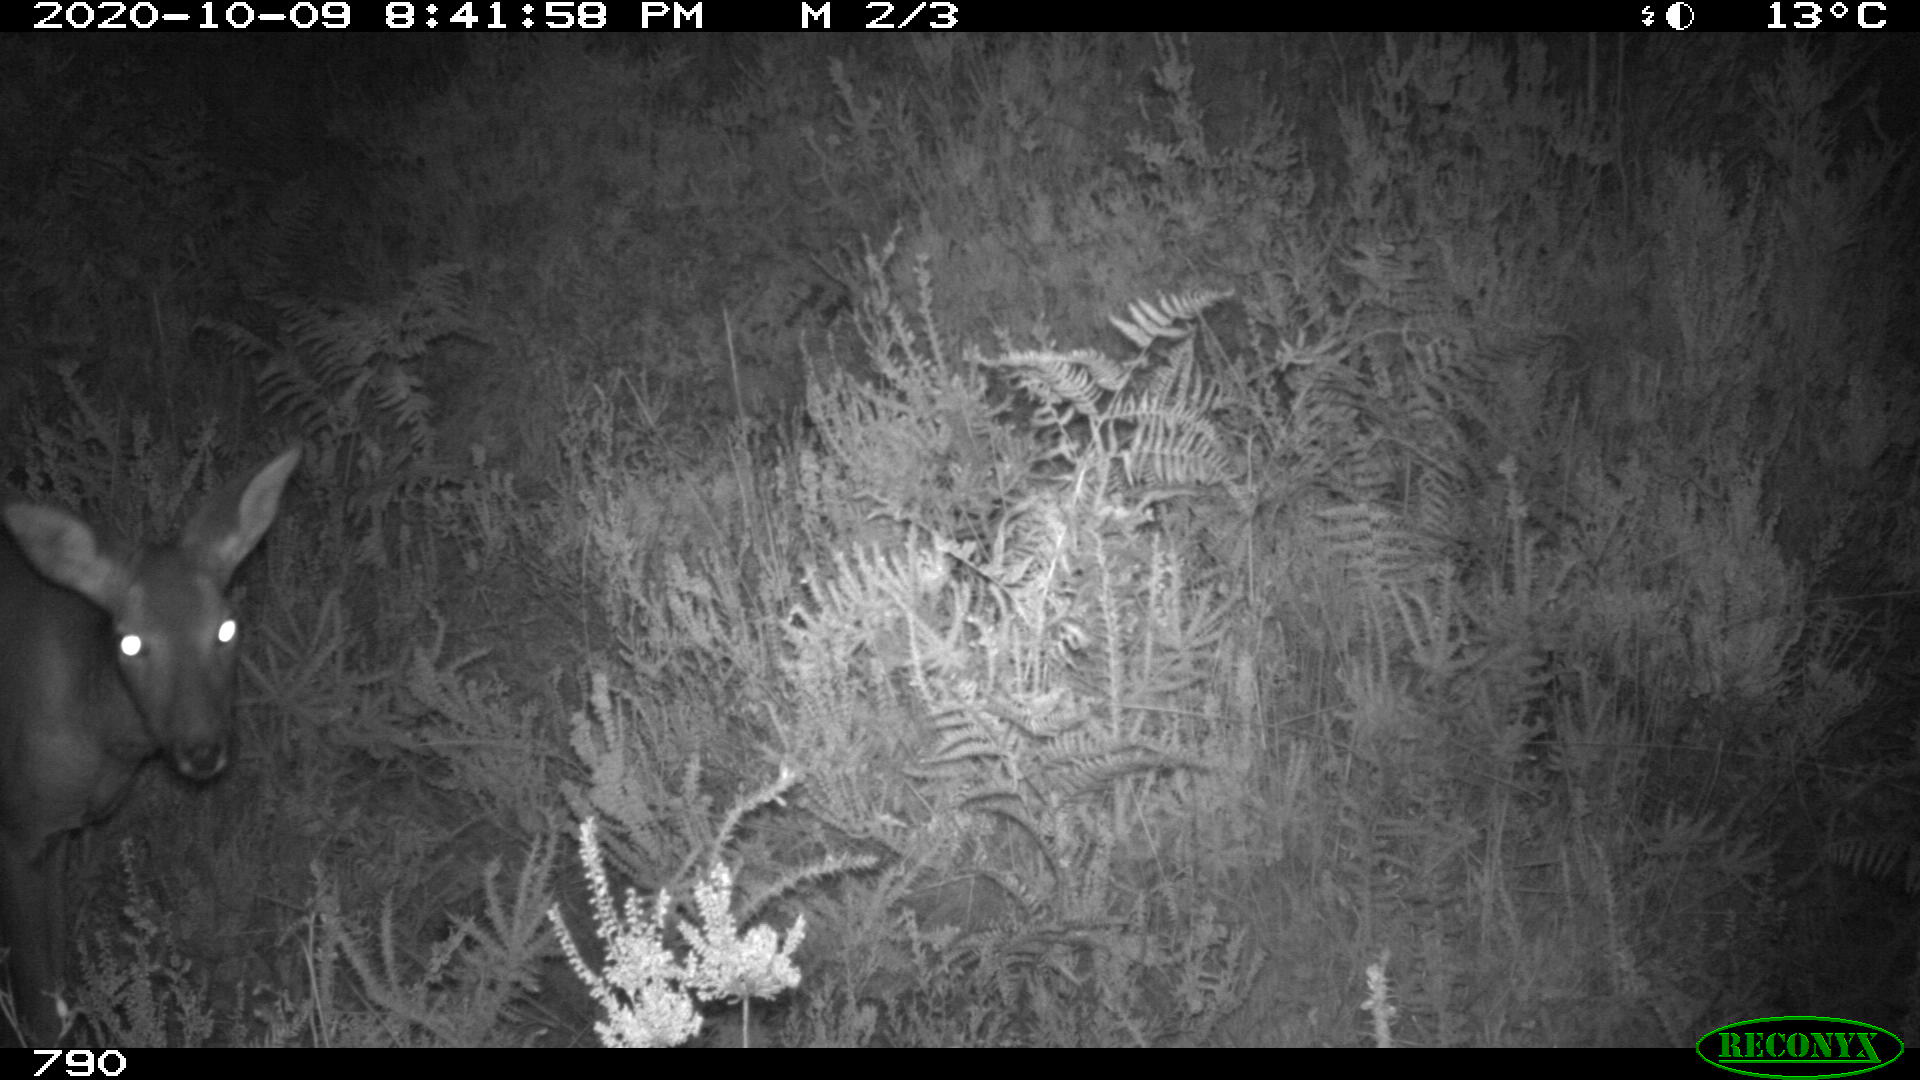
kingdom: Animalia
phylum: Chordata
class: Mammalia
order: Artiodactyla
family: Cervidae
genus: Capreolus
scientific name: Capreolus capreolus
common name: Western roe deer
